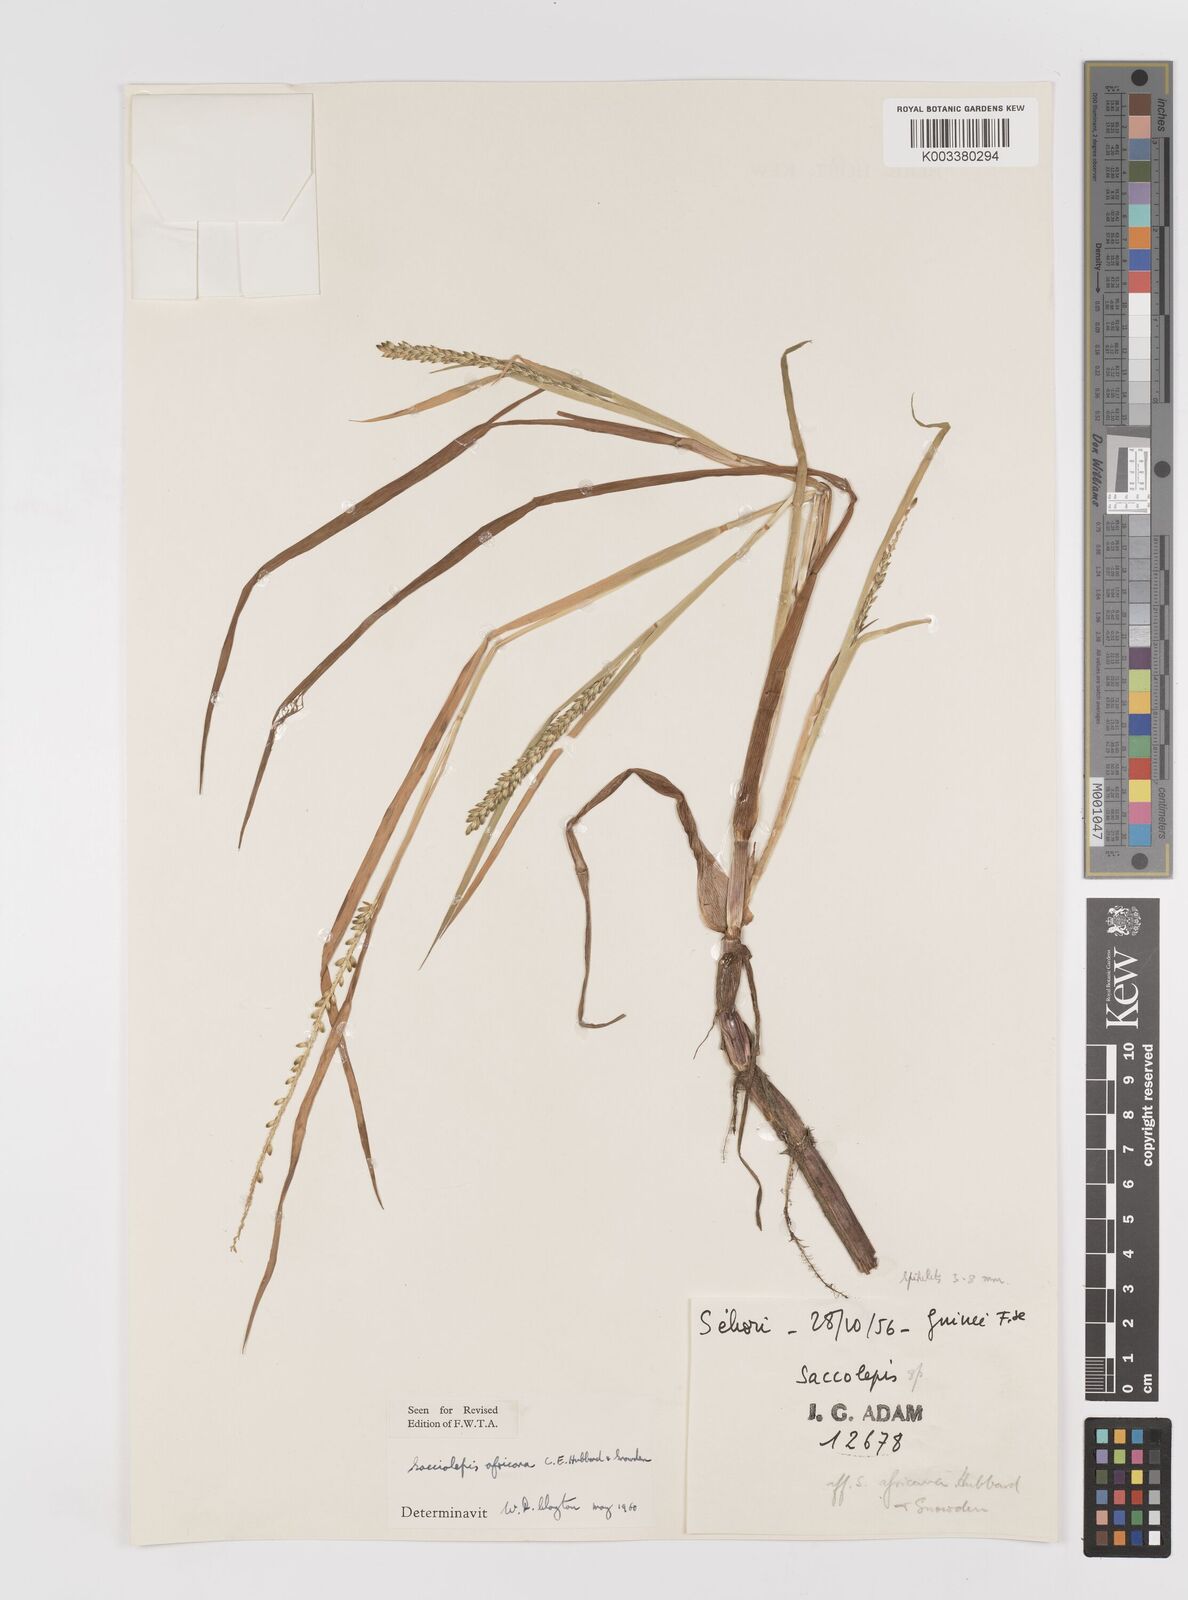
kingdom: Plantae
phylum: Tracheophyta
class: Liliopsida
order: Poales
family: Poaceae
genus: Sacciolepis
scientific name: Sacciolepis africana
